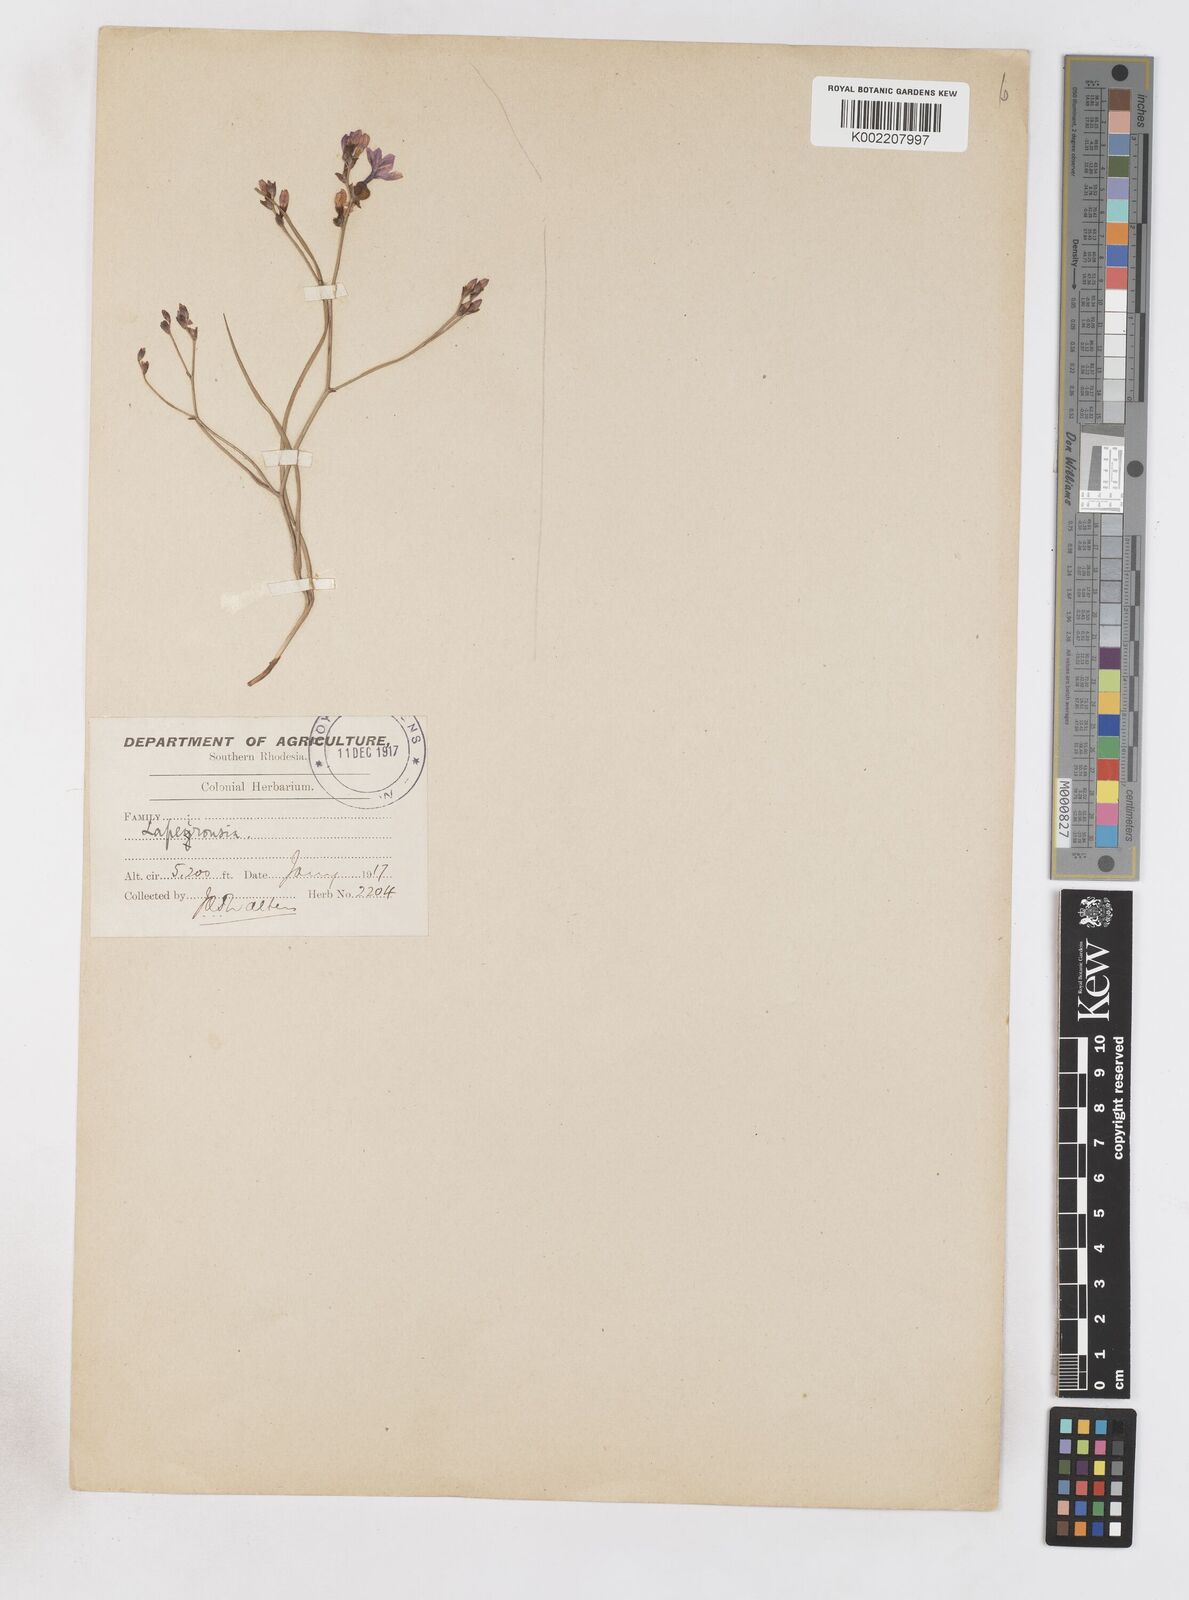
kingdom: Plantae
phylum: Tracheophyta
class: Liliopsida
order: Asparagales
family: Iridaceae
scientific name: Iridaceae
